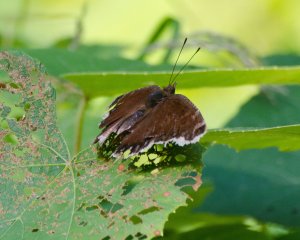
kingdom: Animalia
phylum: Arthropoda
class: Insecta
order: Lepidoptera
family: Nymphalidae
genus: Nymphalis
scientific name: Nymphalis antiopa
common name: Mourning Cloak
